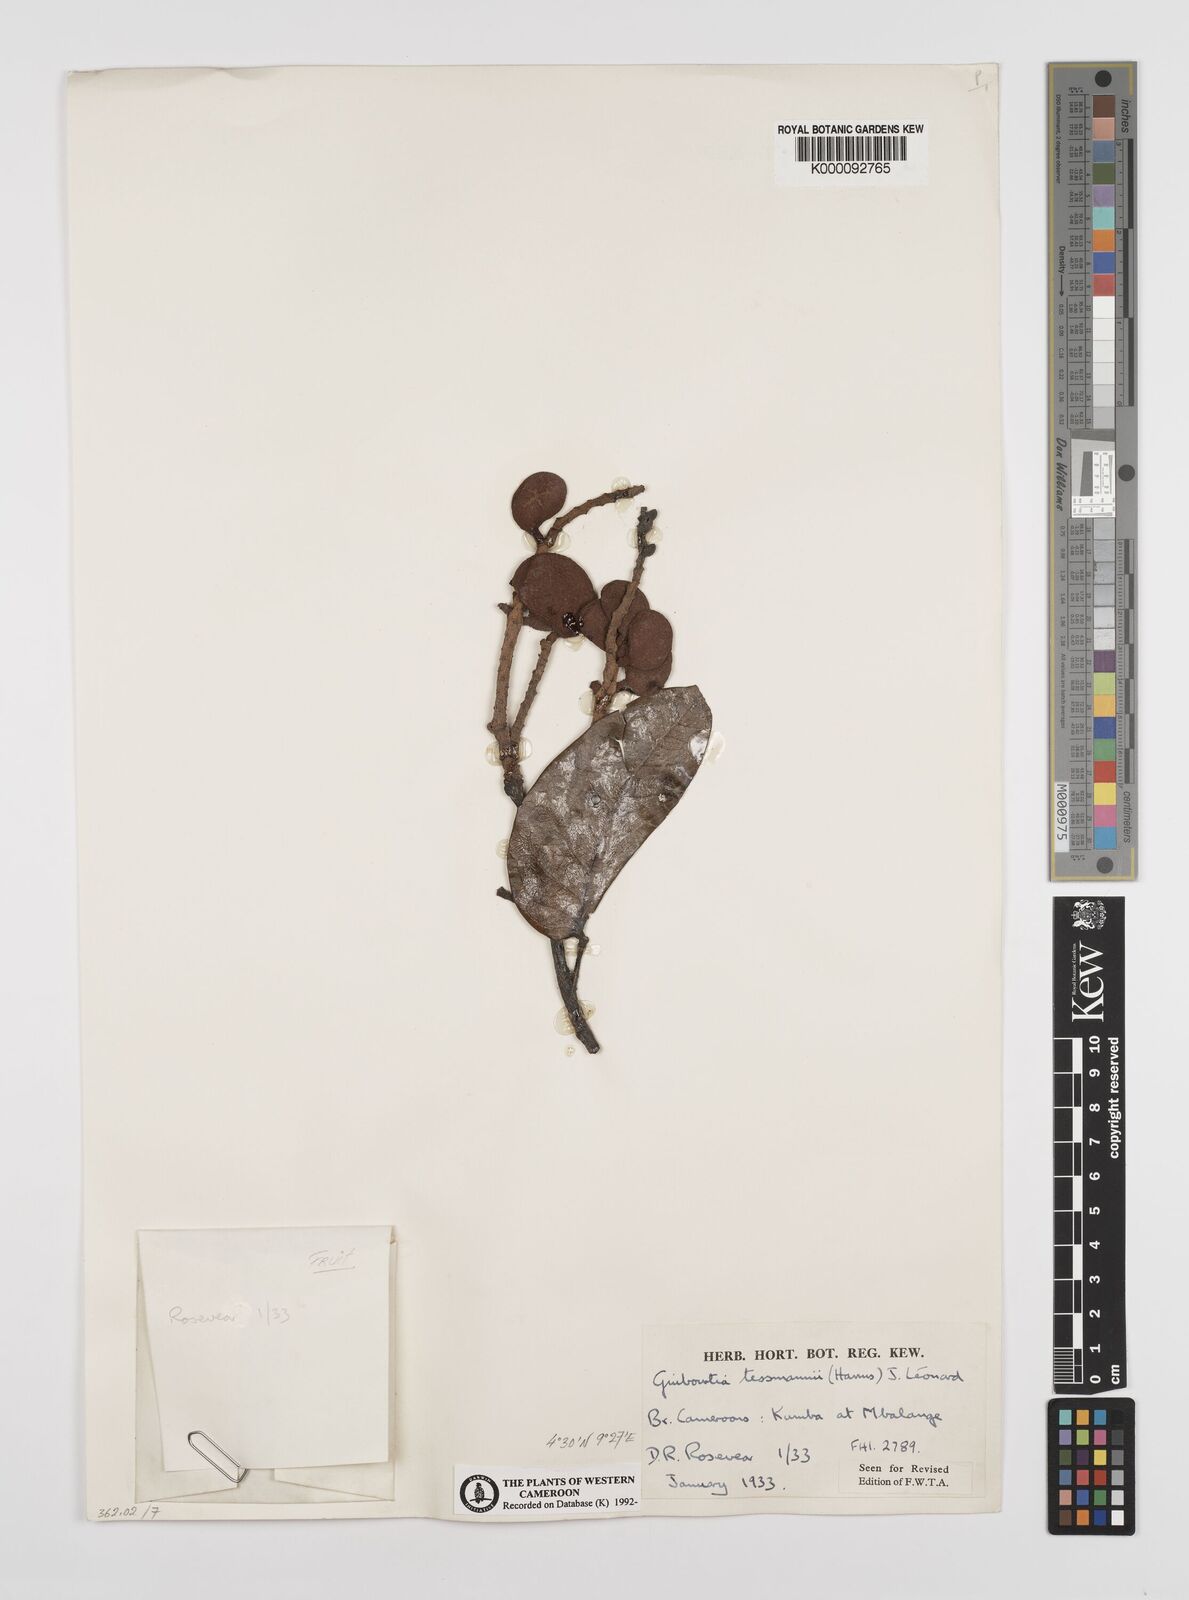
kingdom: Plantae
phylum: Tracheophyta
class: Magnoliopsida
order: Fabales
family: Fabaceae
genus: Guibourtia
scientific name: Guibourtia
